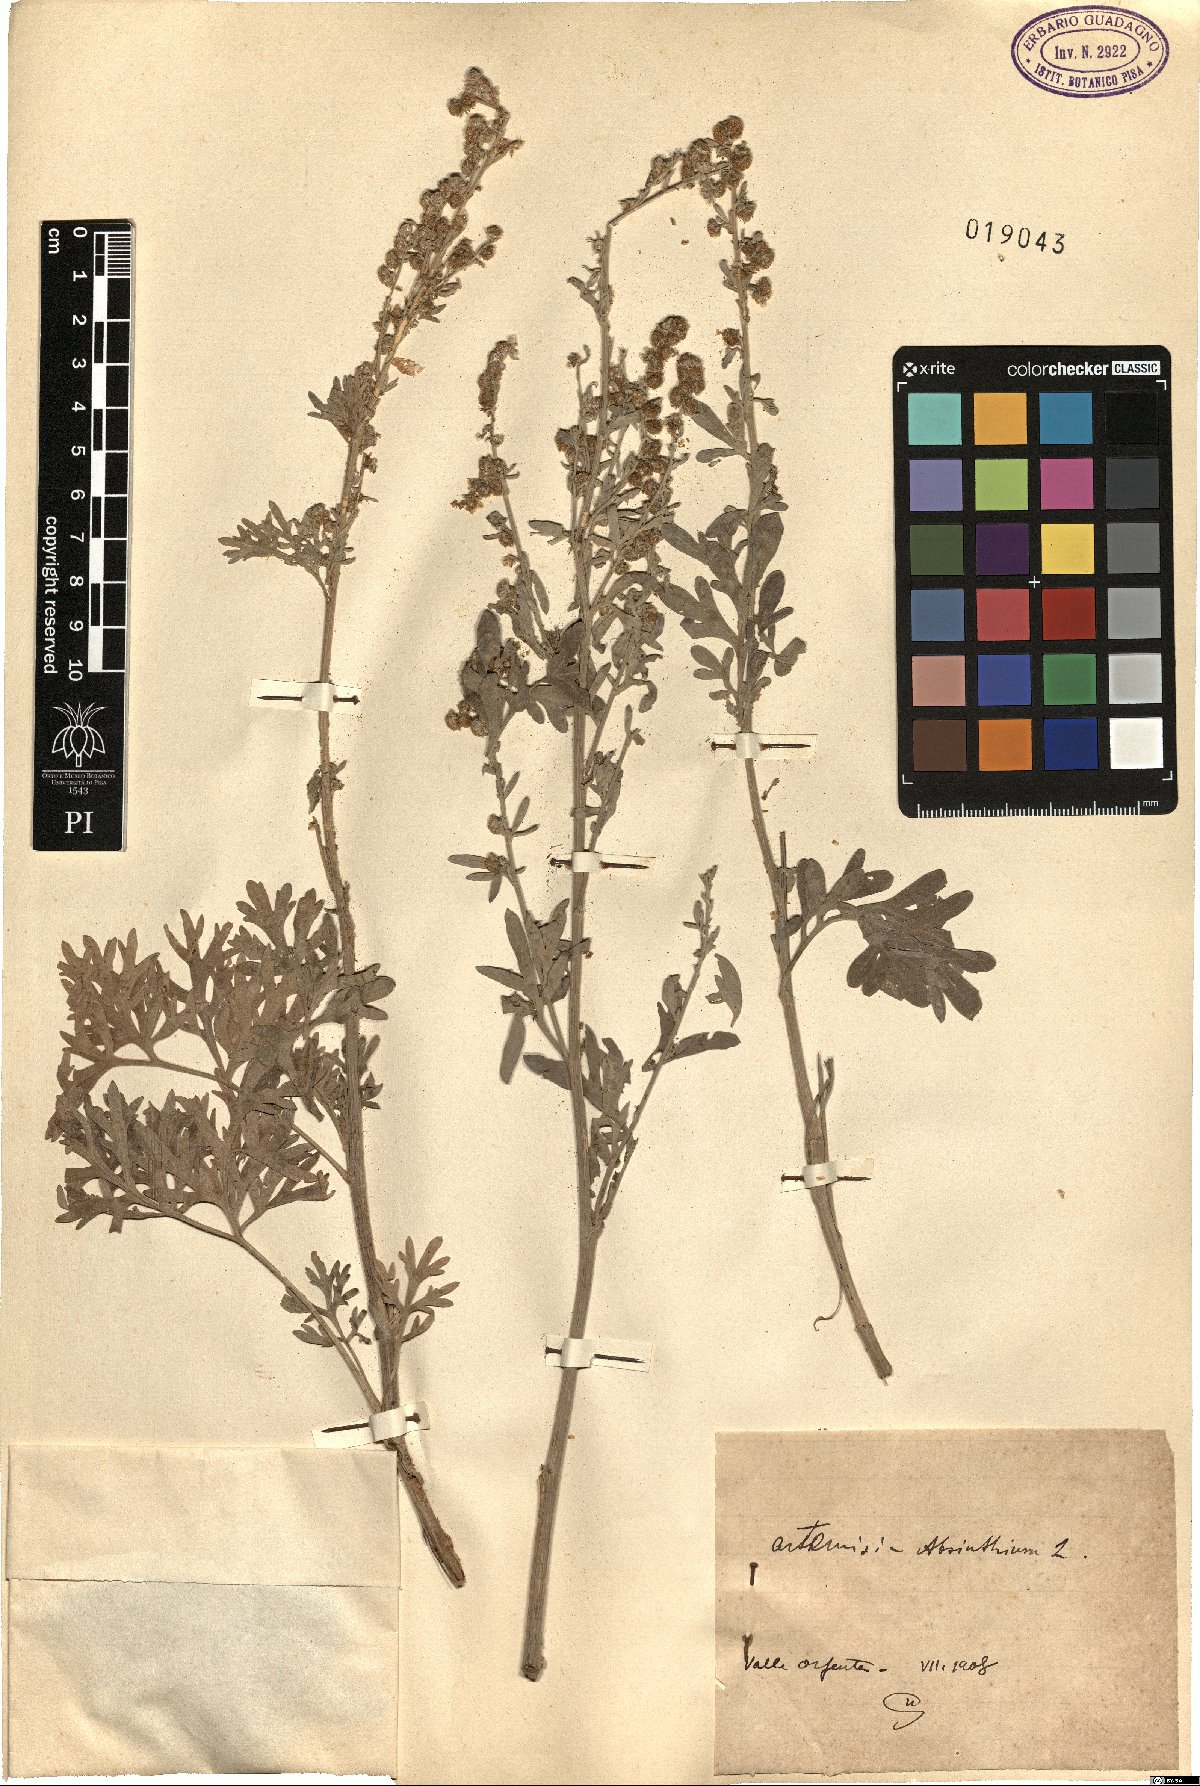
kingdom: Plantae
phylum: Tracheophyta
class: Magnoliopsida
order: Asterales
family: Asteraceae
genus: Artemisia
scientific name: Artemisia absinthium
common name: Wormwood
